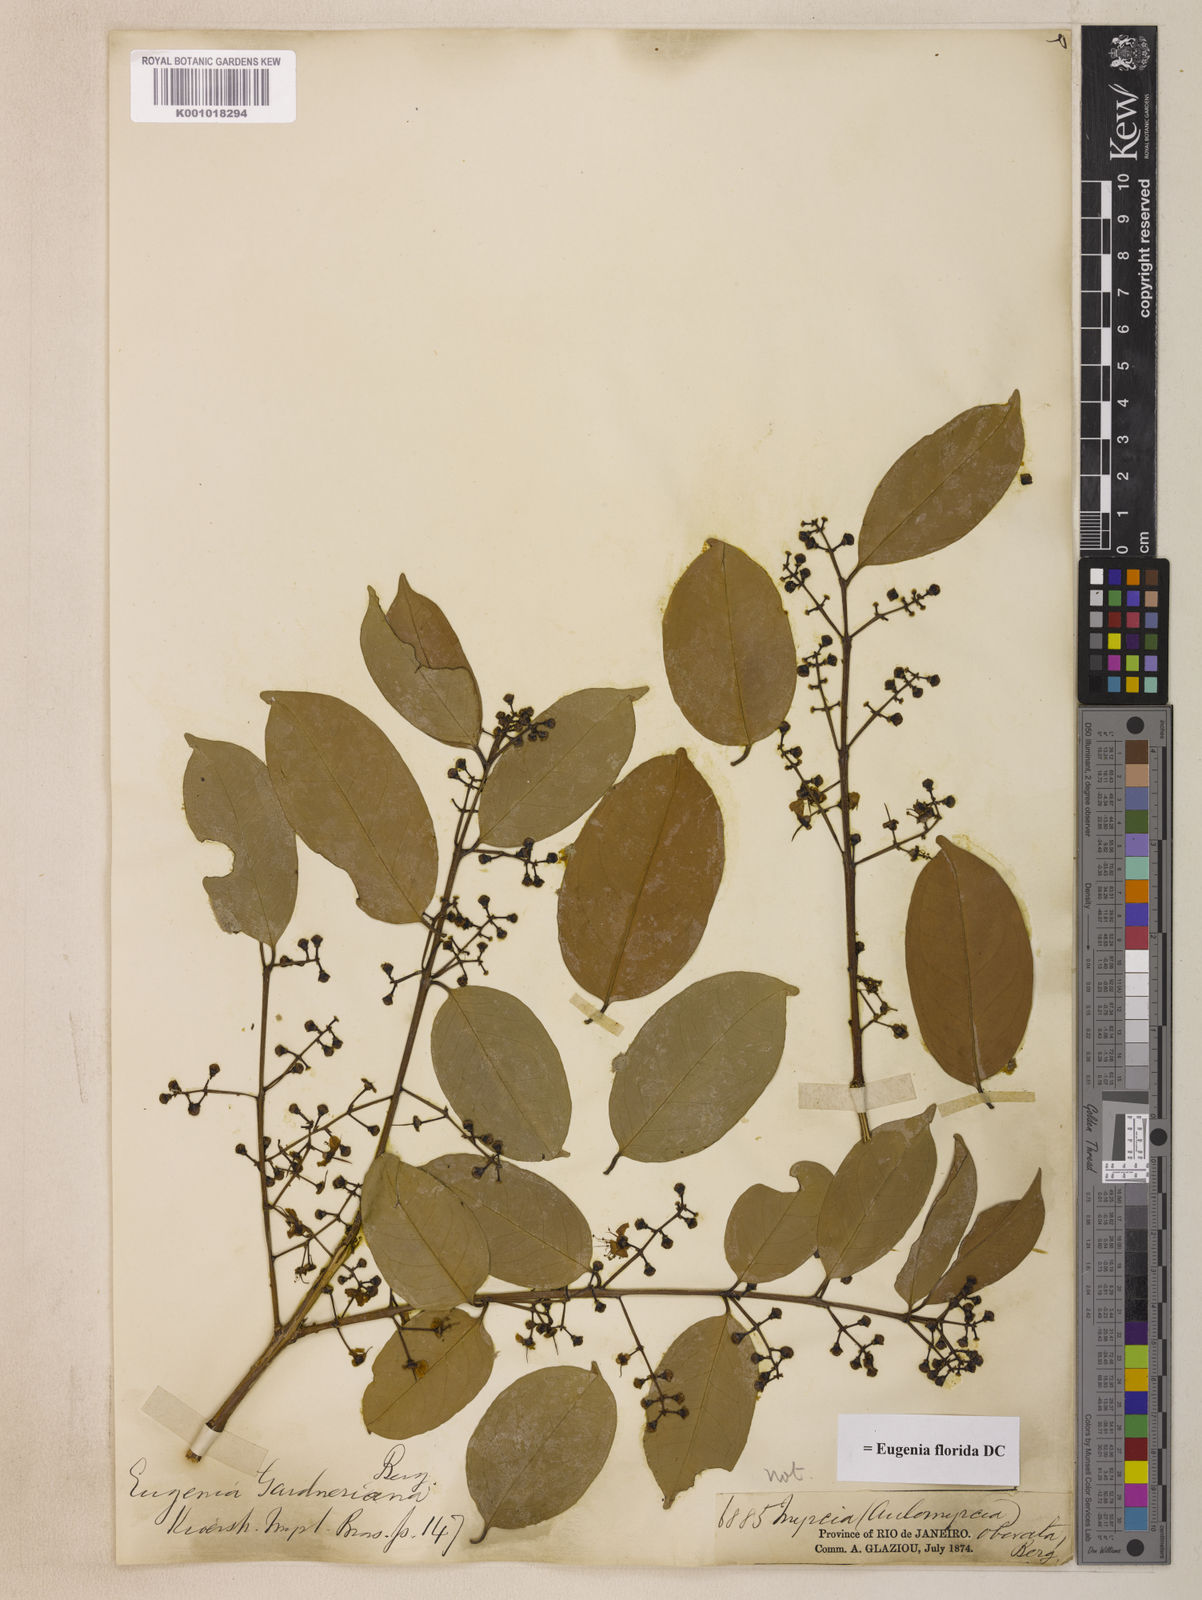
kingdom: Plantae
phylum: Tracheophyta
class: Magnoliopsida
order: Myrtales
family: Myrtaceae
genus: Eugenia
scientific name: Eugenia florida
